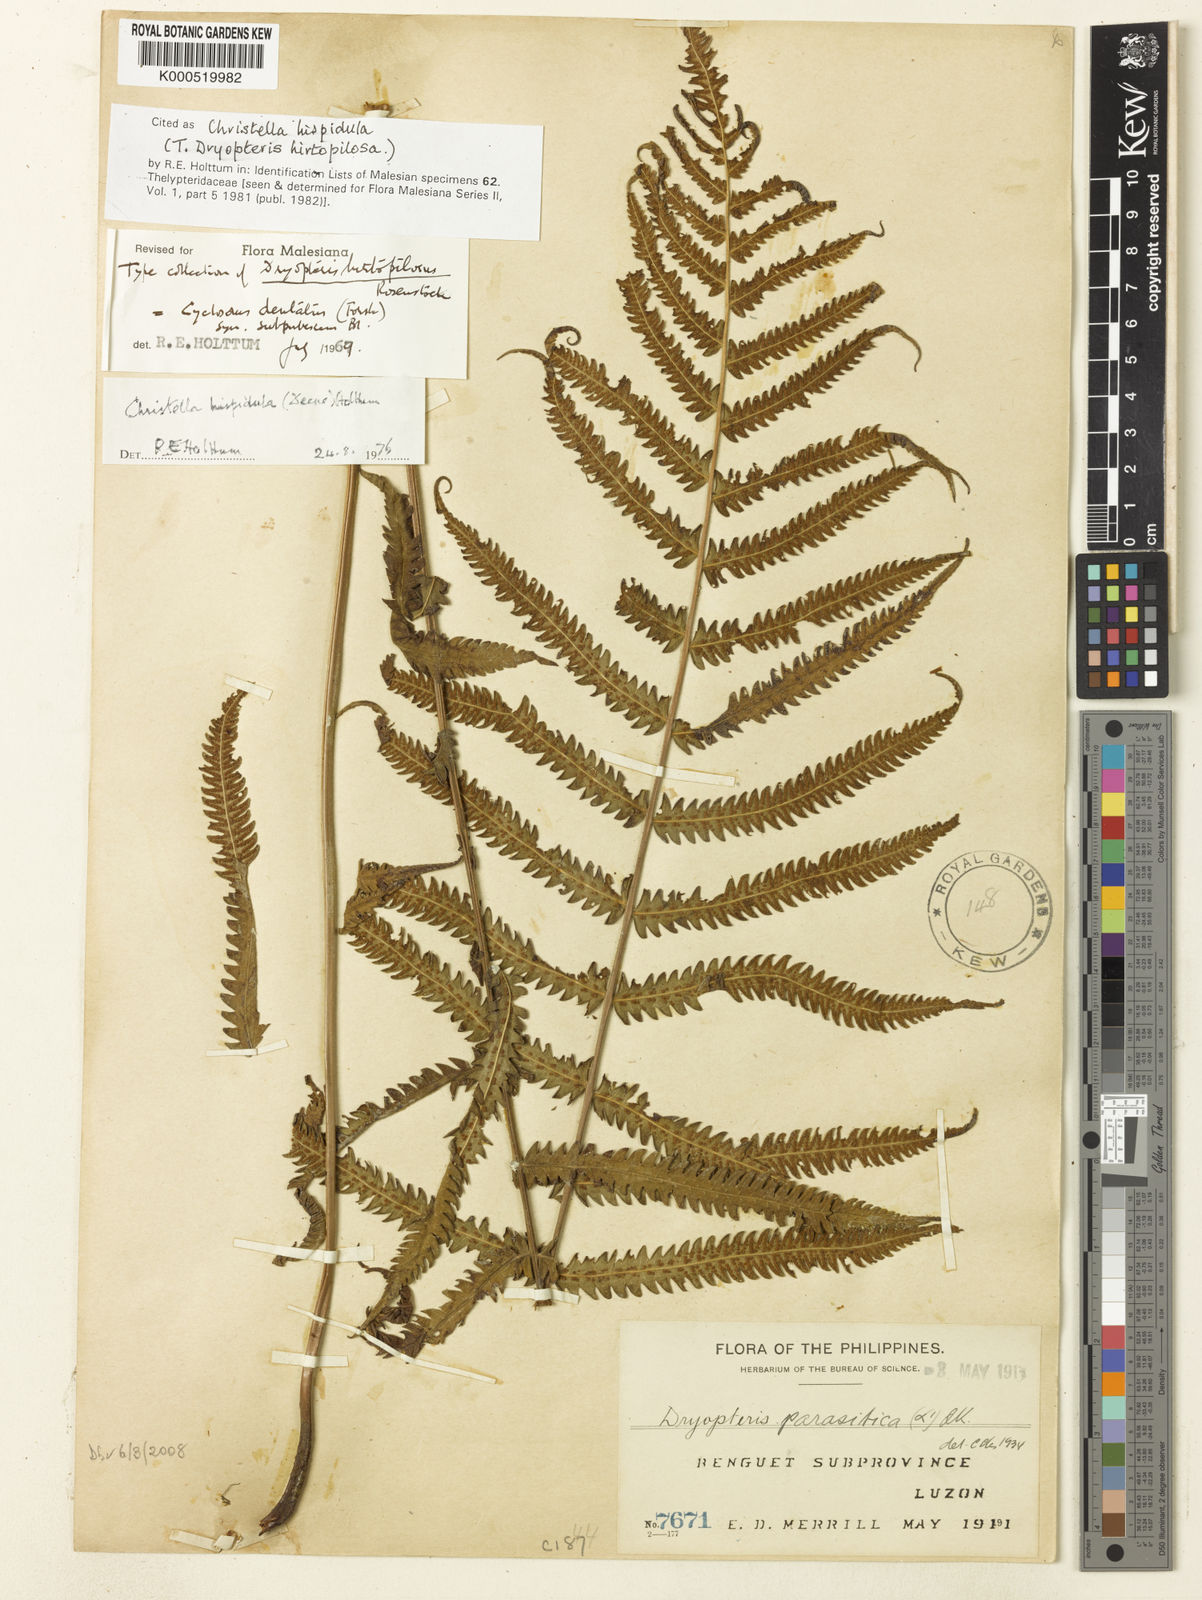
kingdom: Plantae
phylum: Tracheophyta
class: Polypodiopsida
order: Polypodiales
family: Thelypteridaceae
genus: Christella
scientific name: Christella hispidula
